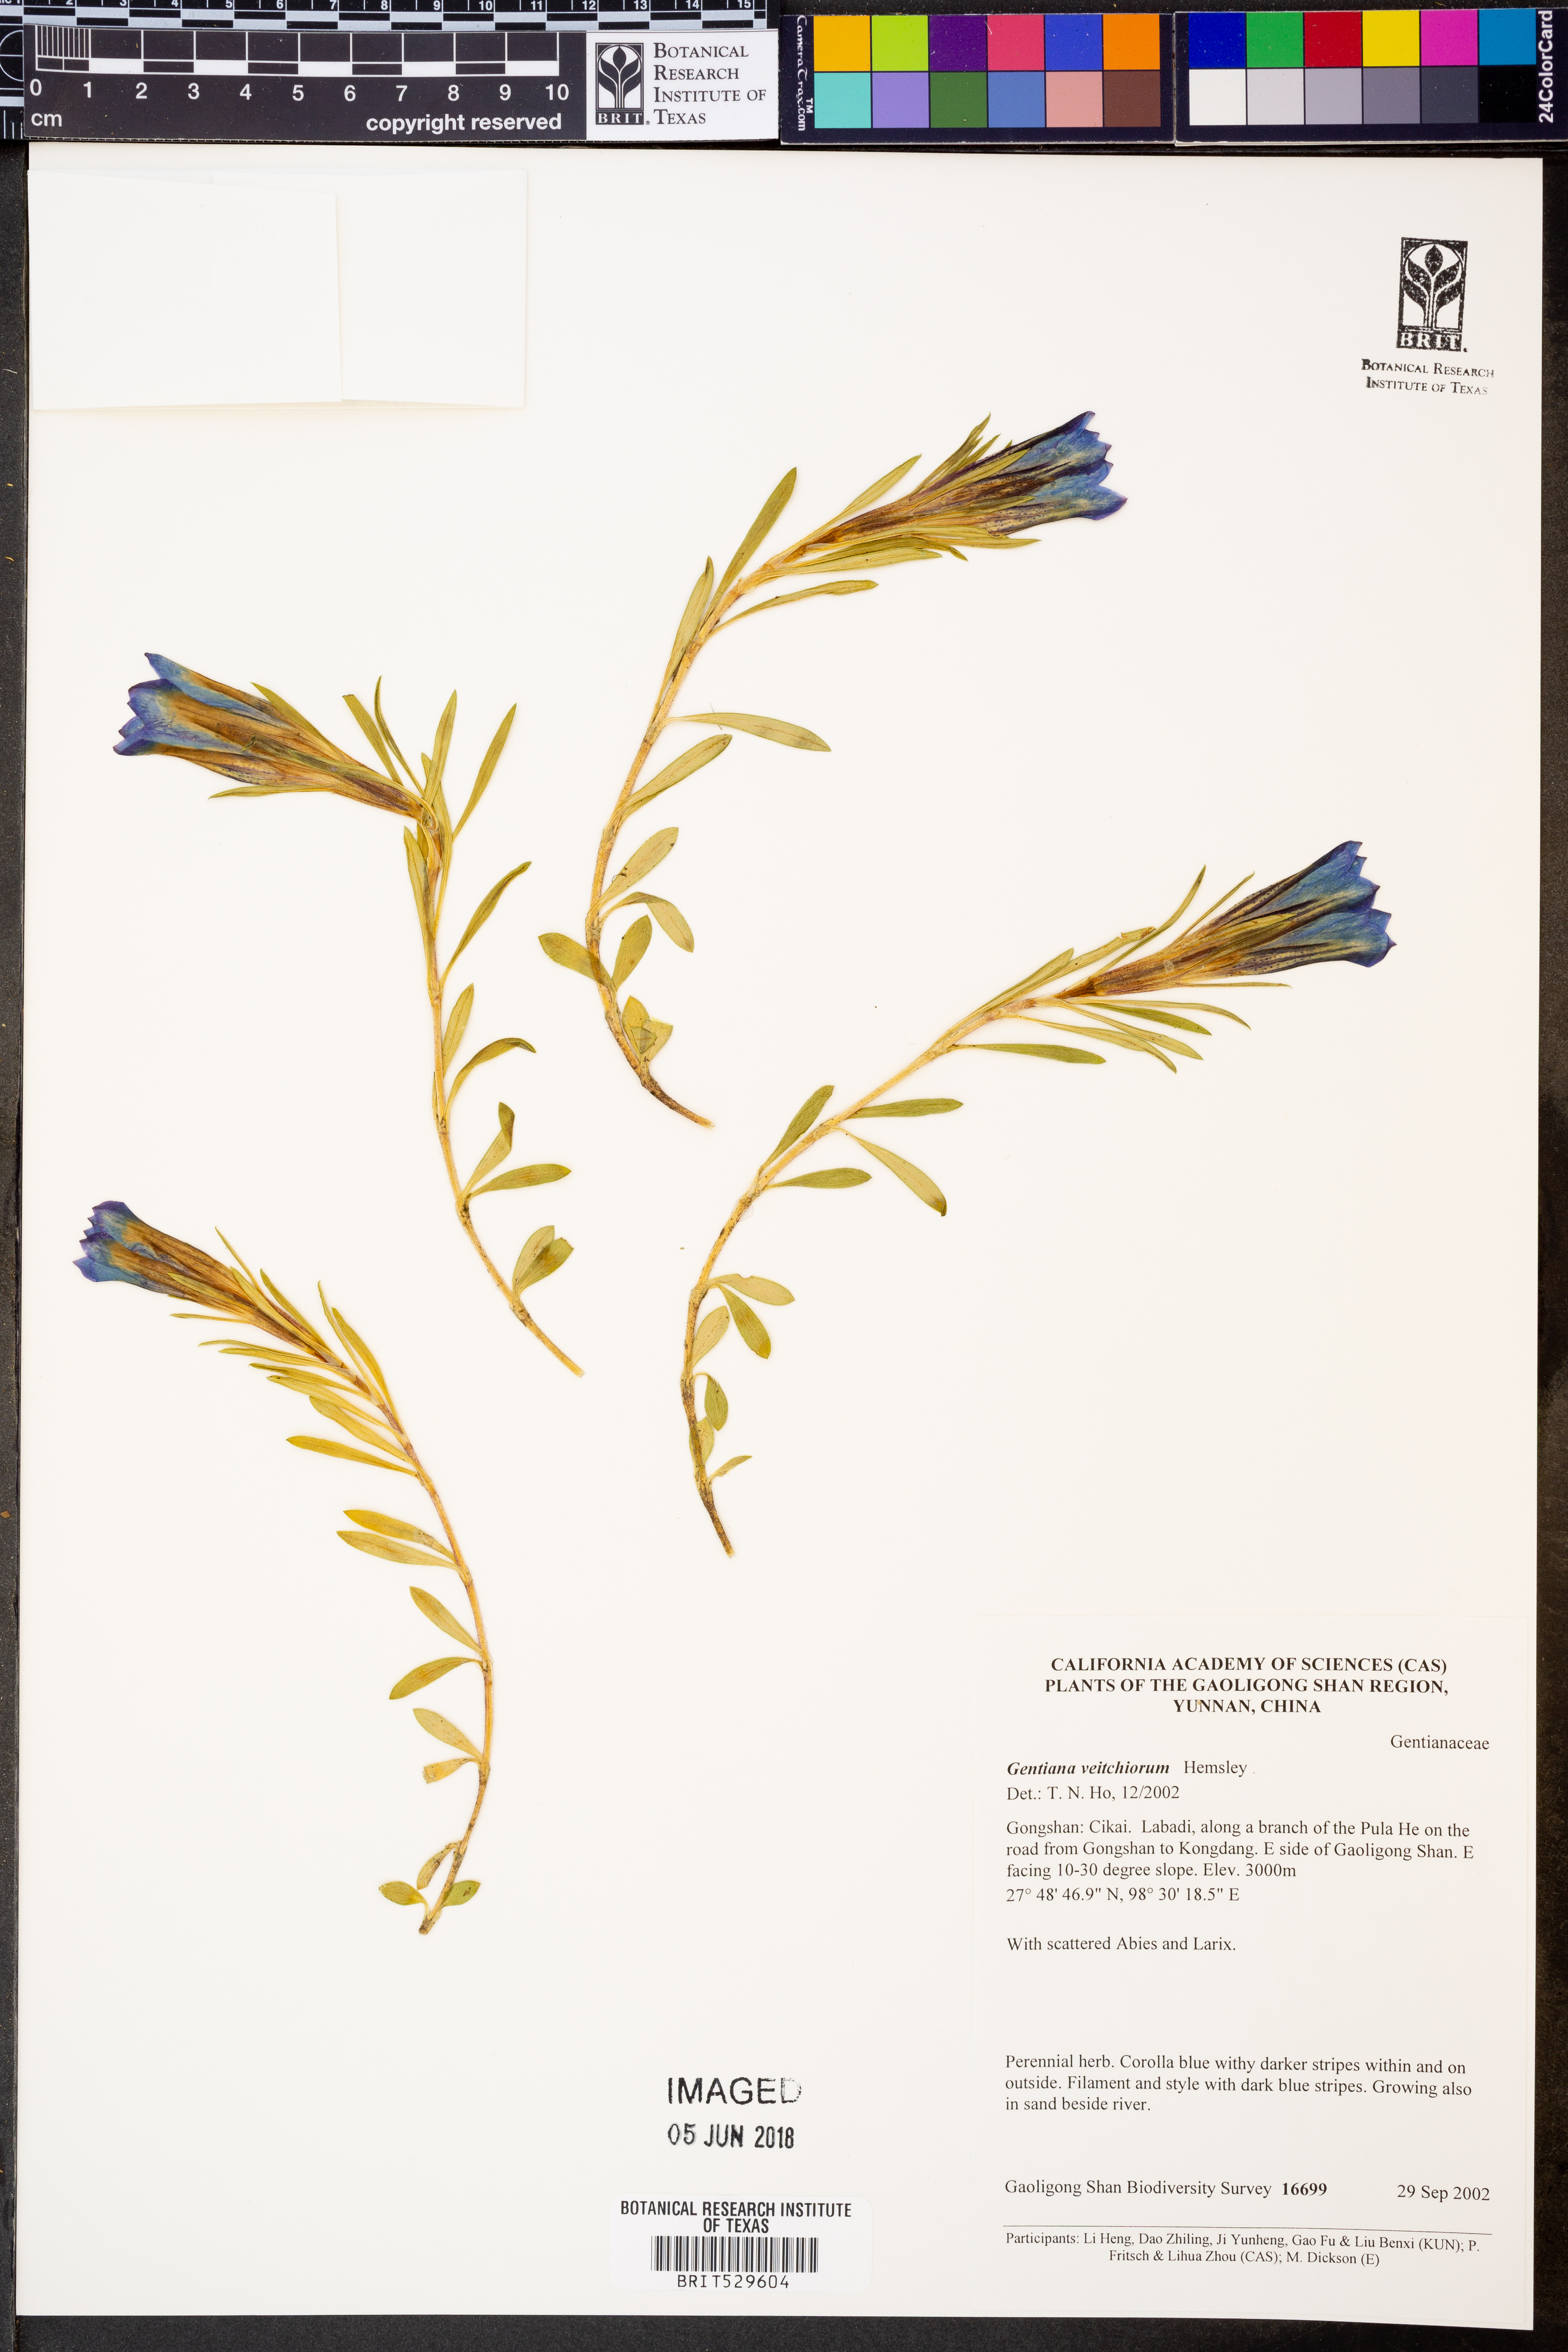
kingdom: Plantae
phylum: Tracheophyta
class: Magnoliopsida
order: Gentianales
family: Gentianaceae
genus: Gentiana
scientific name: Gentiana veitchiorum
